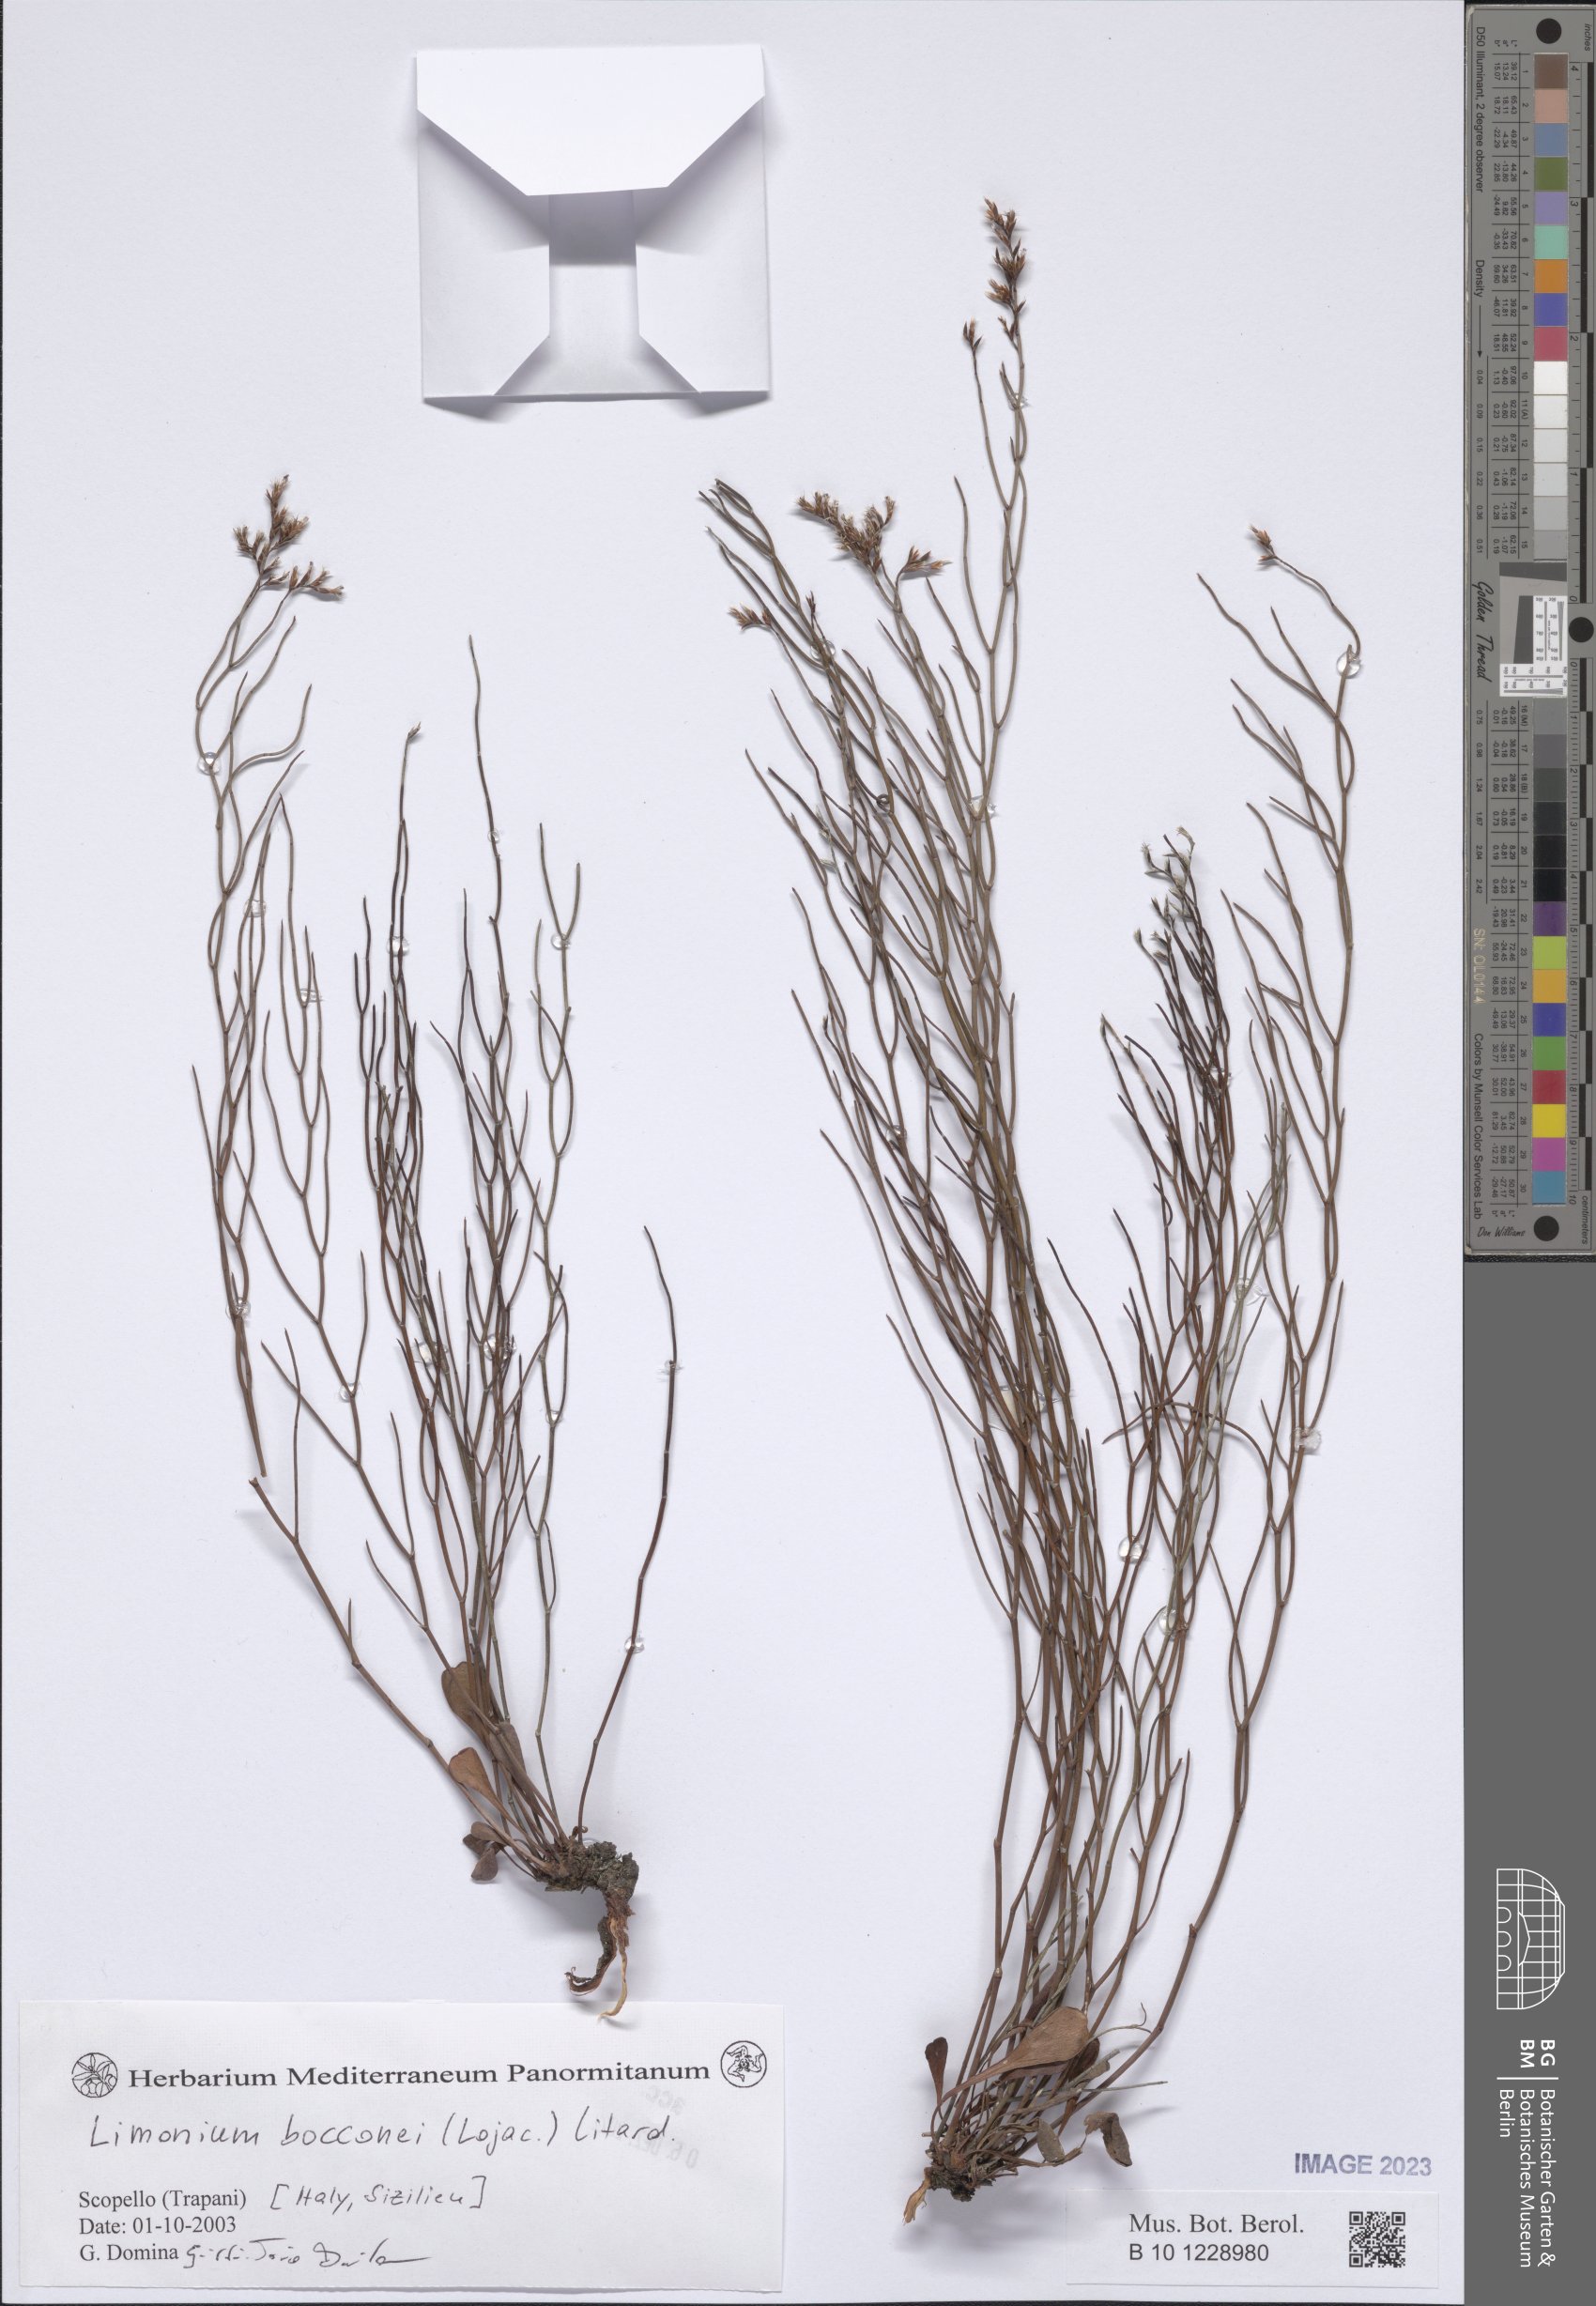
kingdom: Plantae
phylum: Tracheophyta
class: Magnoliopsida
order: Caryophyllales
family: Plumbaginaceae
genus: Limonium
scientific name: Limonium bocconei
